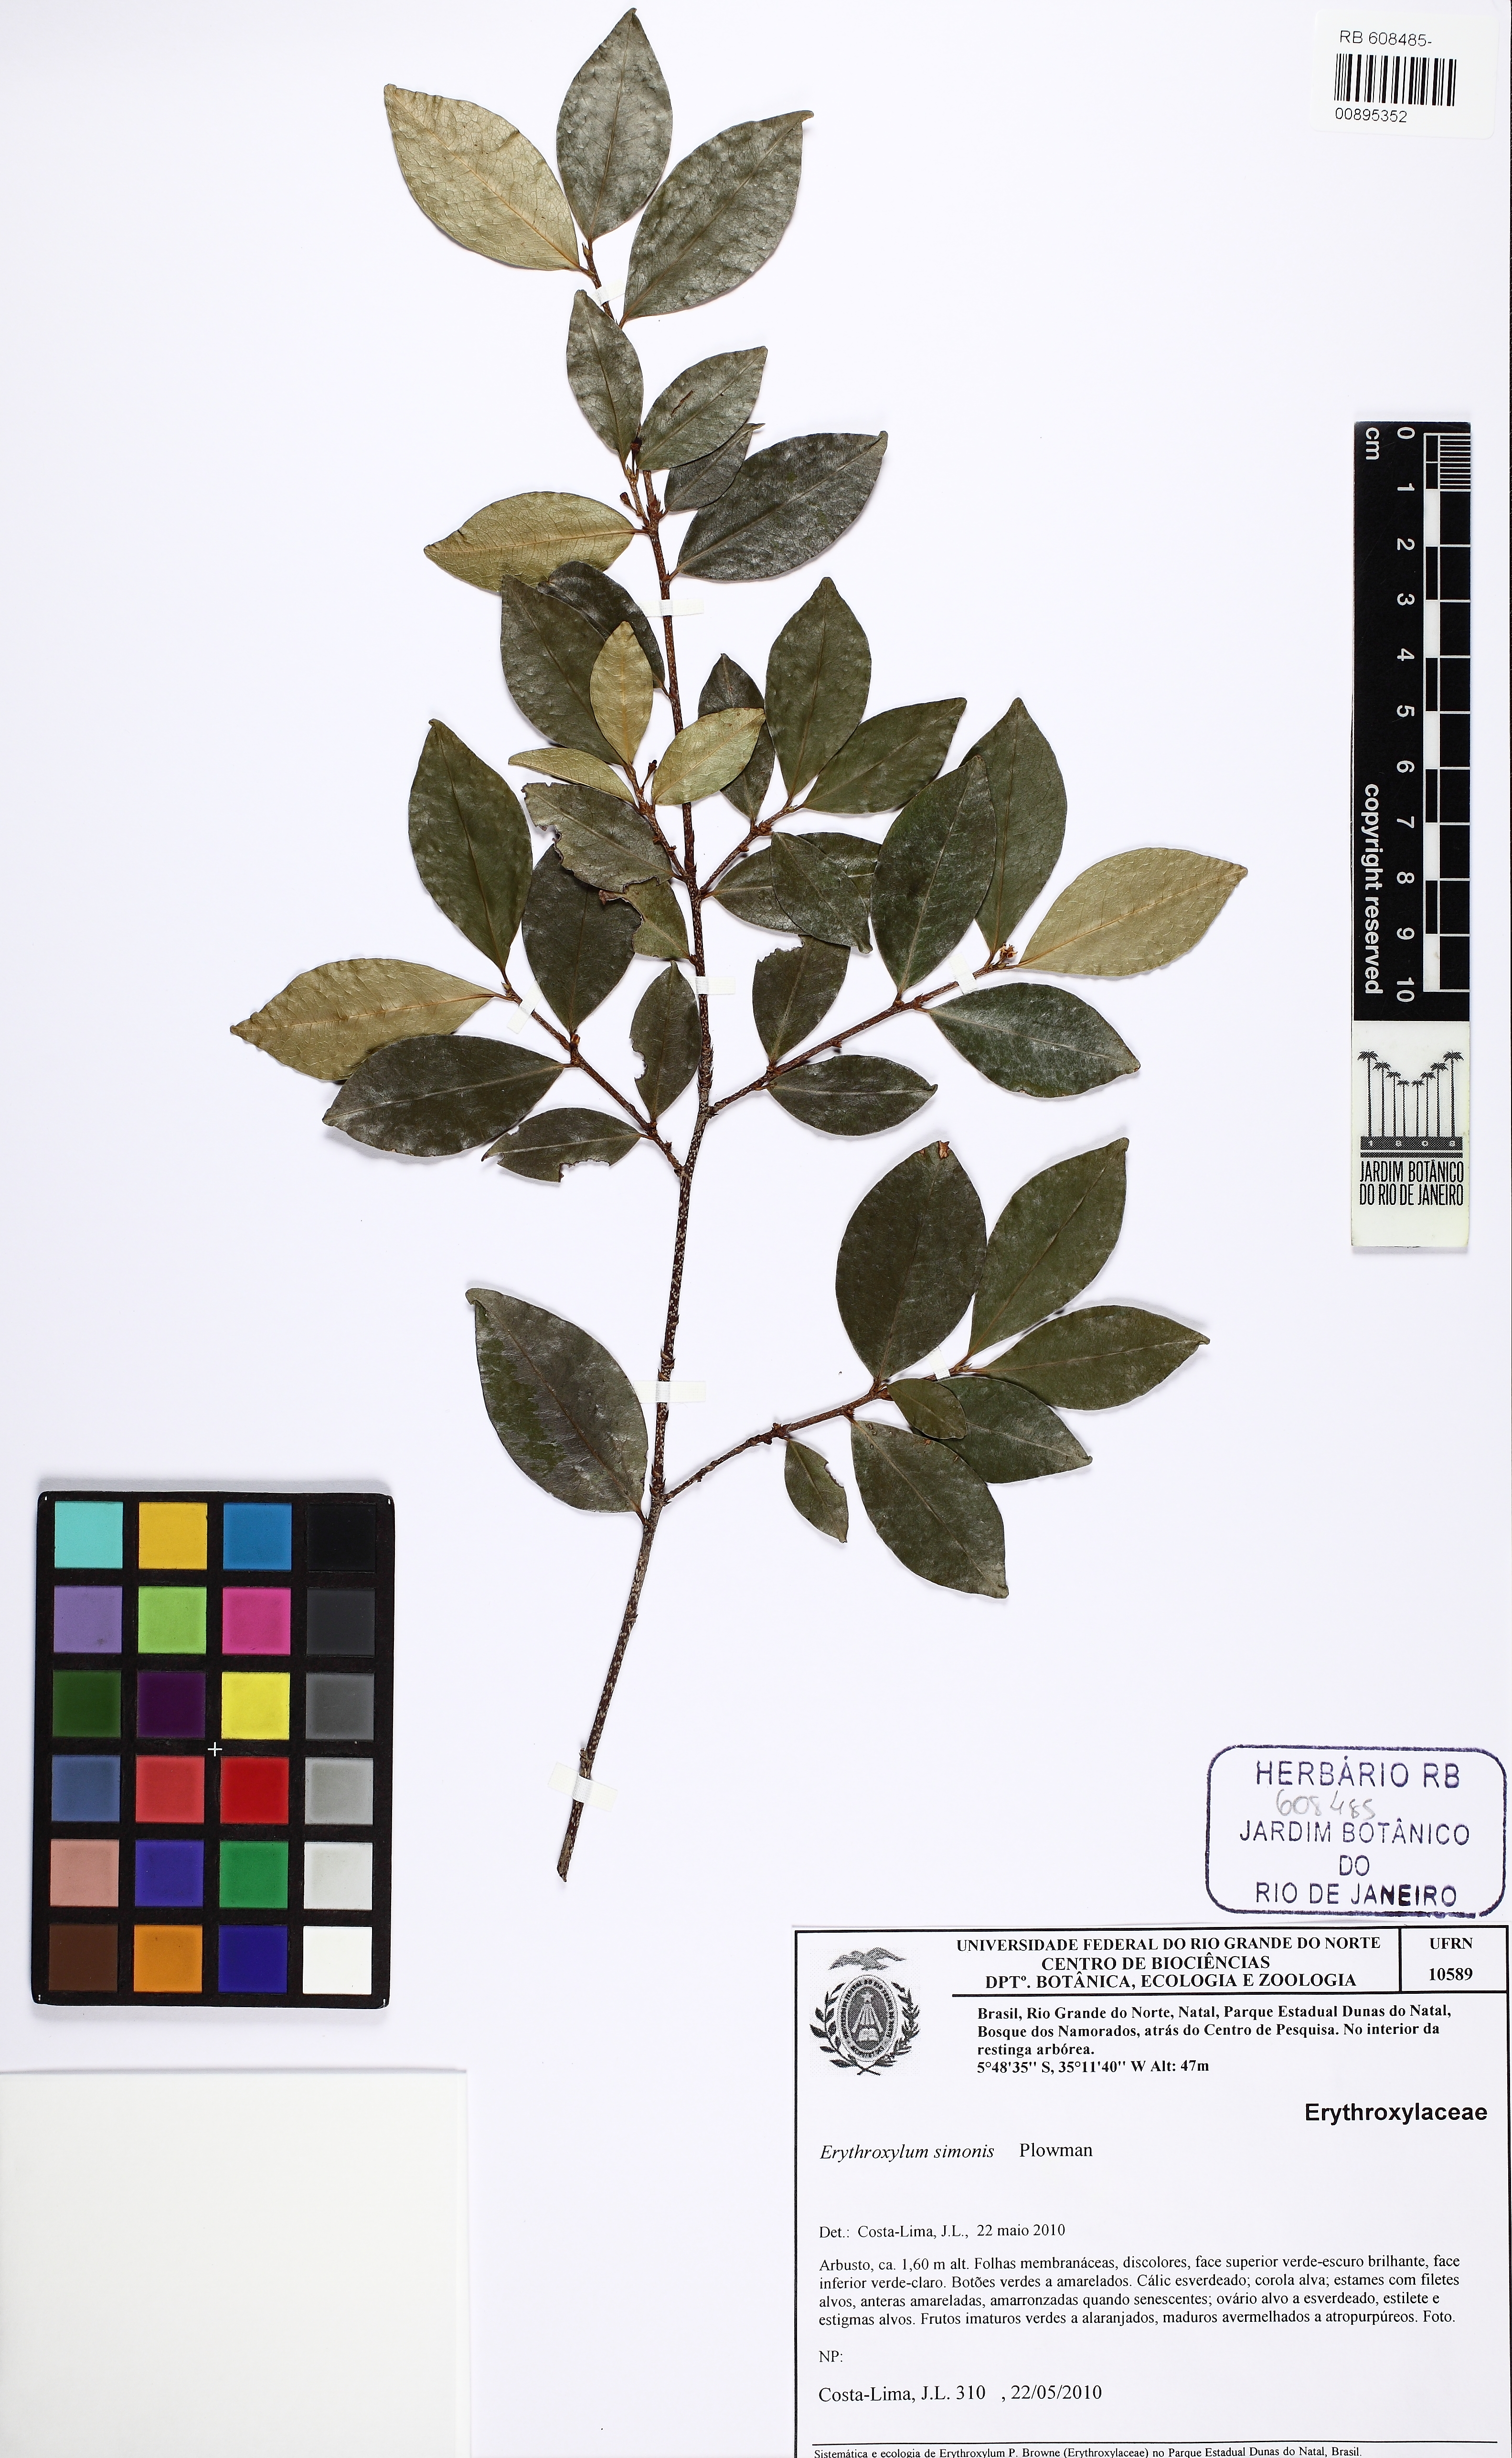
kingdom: Plantae
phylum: Tracheophyta
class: Magnoliopsida
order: Malpighiales
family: Erythroxylaceae
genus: Erythroxylum
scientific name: Erythroxylum simonis
